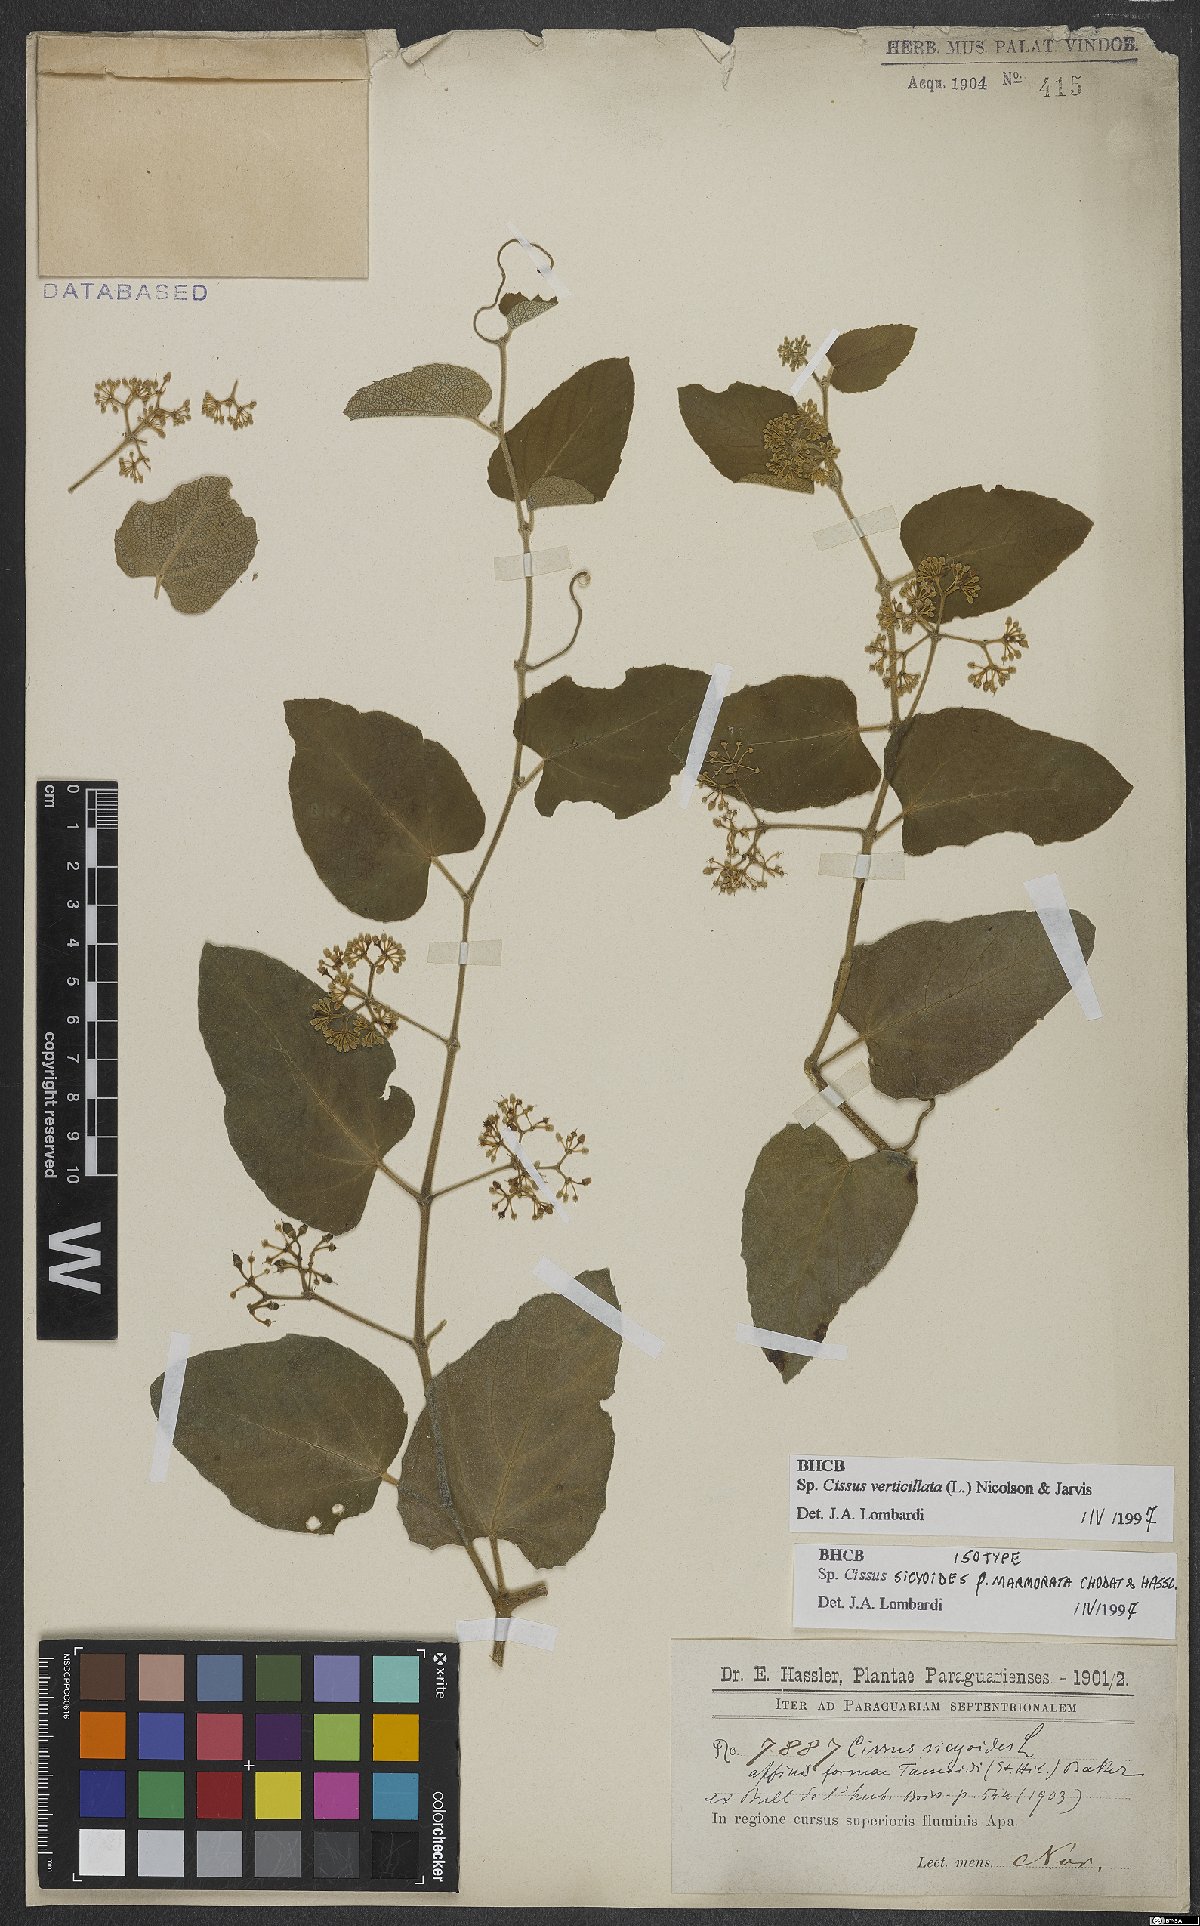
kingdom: Plantae
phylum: Tracheophyta
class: Magnoliopsida
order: Vitales
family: Vitaceae
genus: Cissus
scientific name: Cissus verticillata
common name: Princess vine
